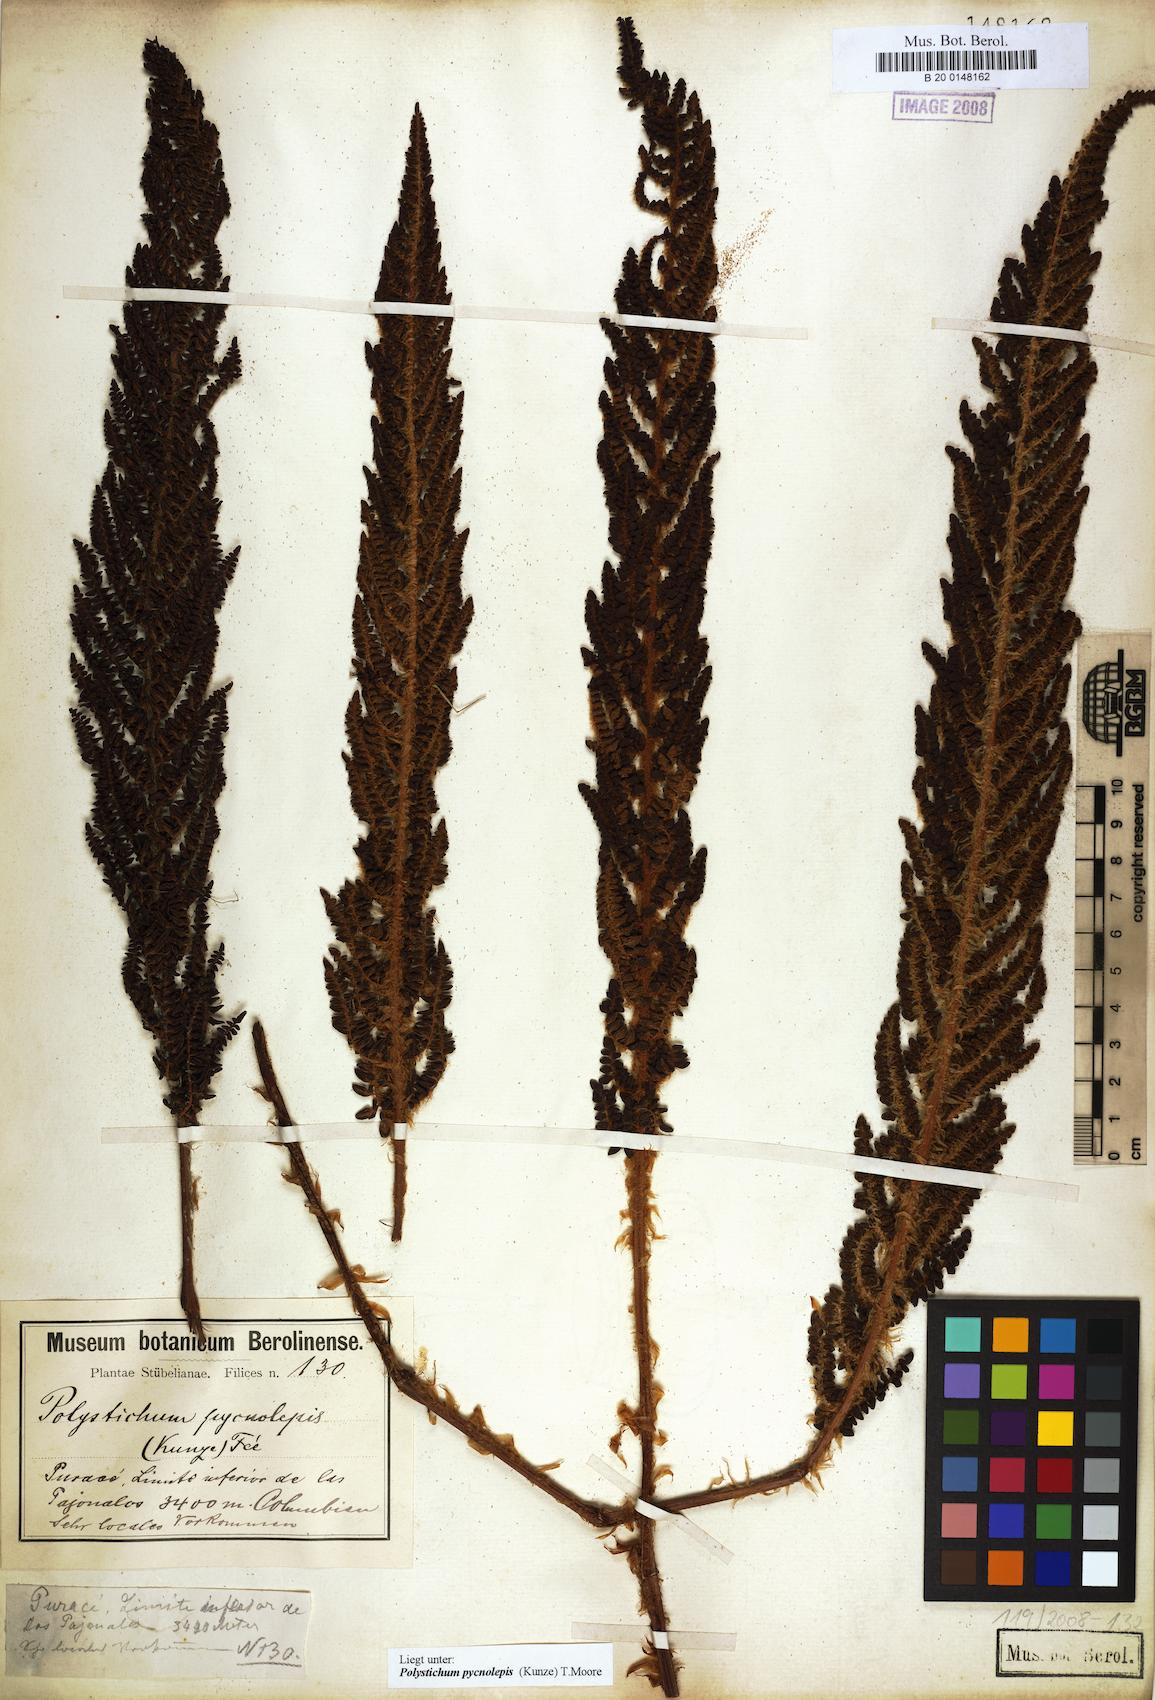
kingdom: Plantae
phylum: Tracheophyta
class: Polypodiopsida
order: Polypodiales
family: Dryopteridaceae
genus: Polystichum
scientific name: Polystichum pycnolepis
